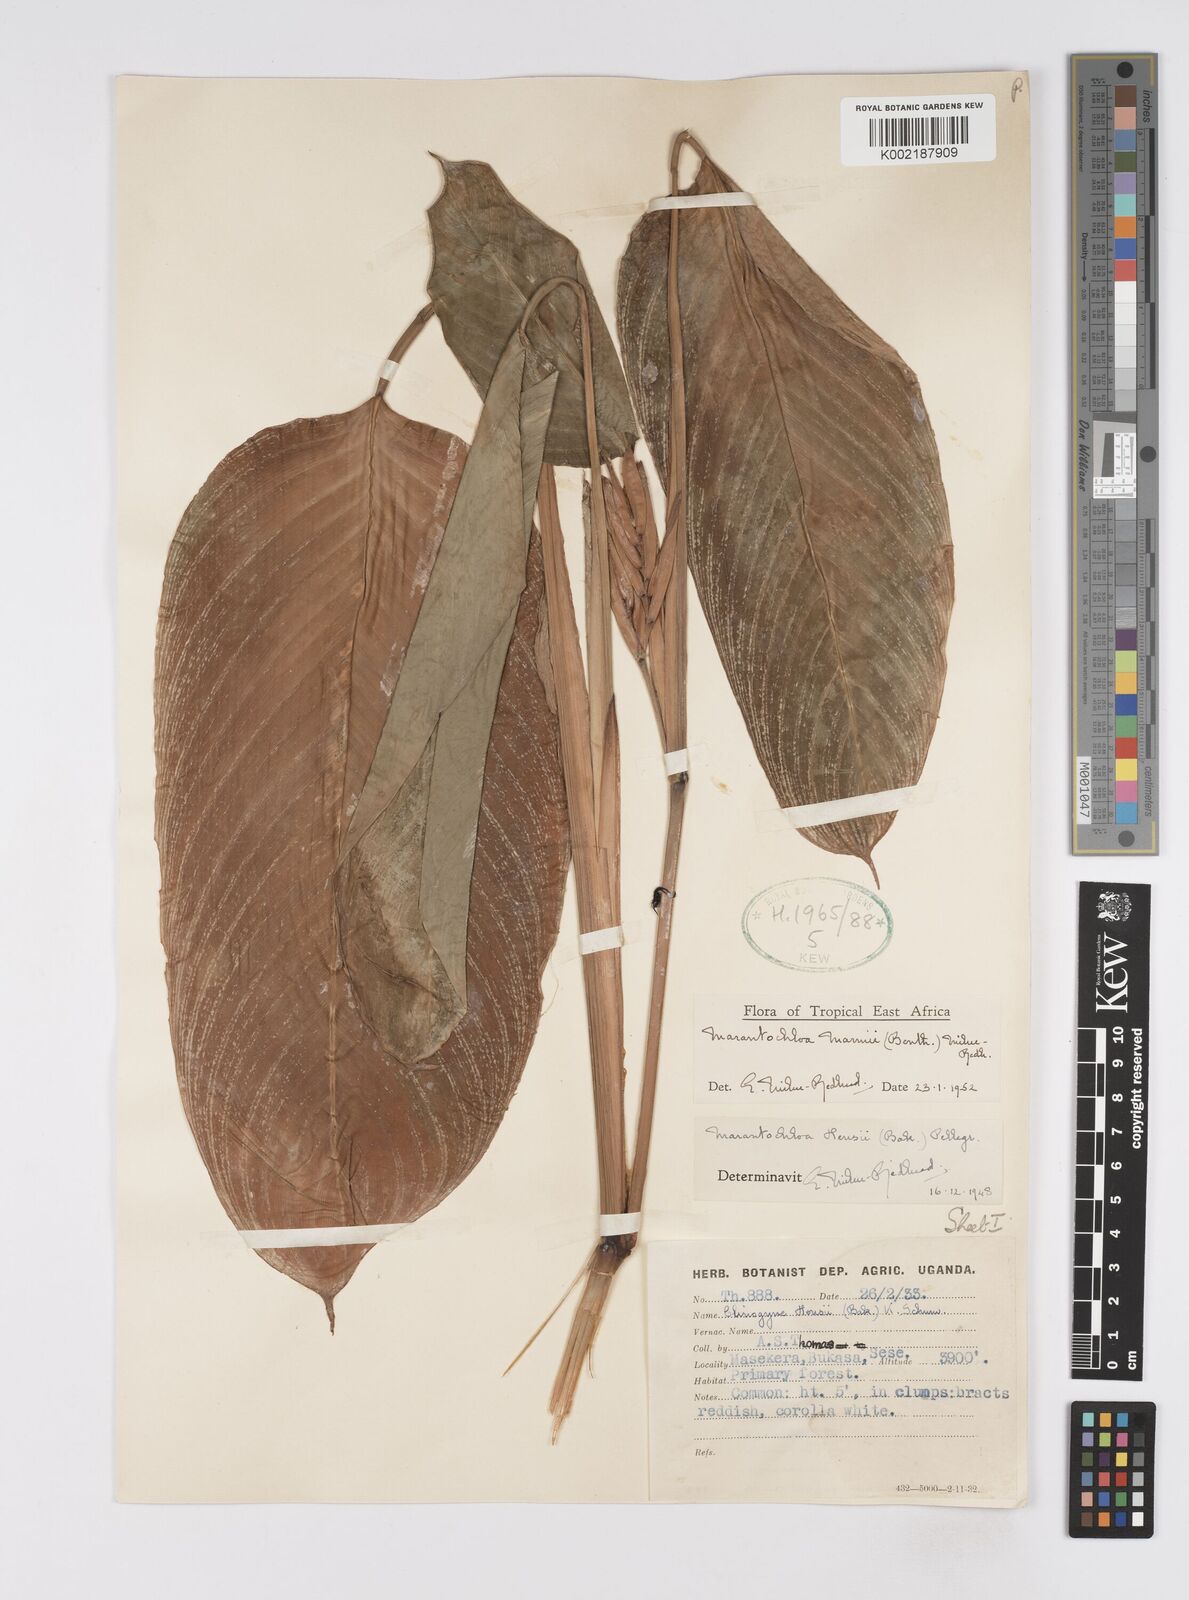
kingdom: Plantae
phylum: Tracheophyta
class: Liliopsida
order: Zingiberales
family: Marantaceae
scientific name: Marantaceae
